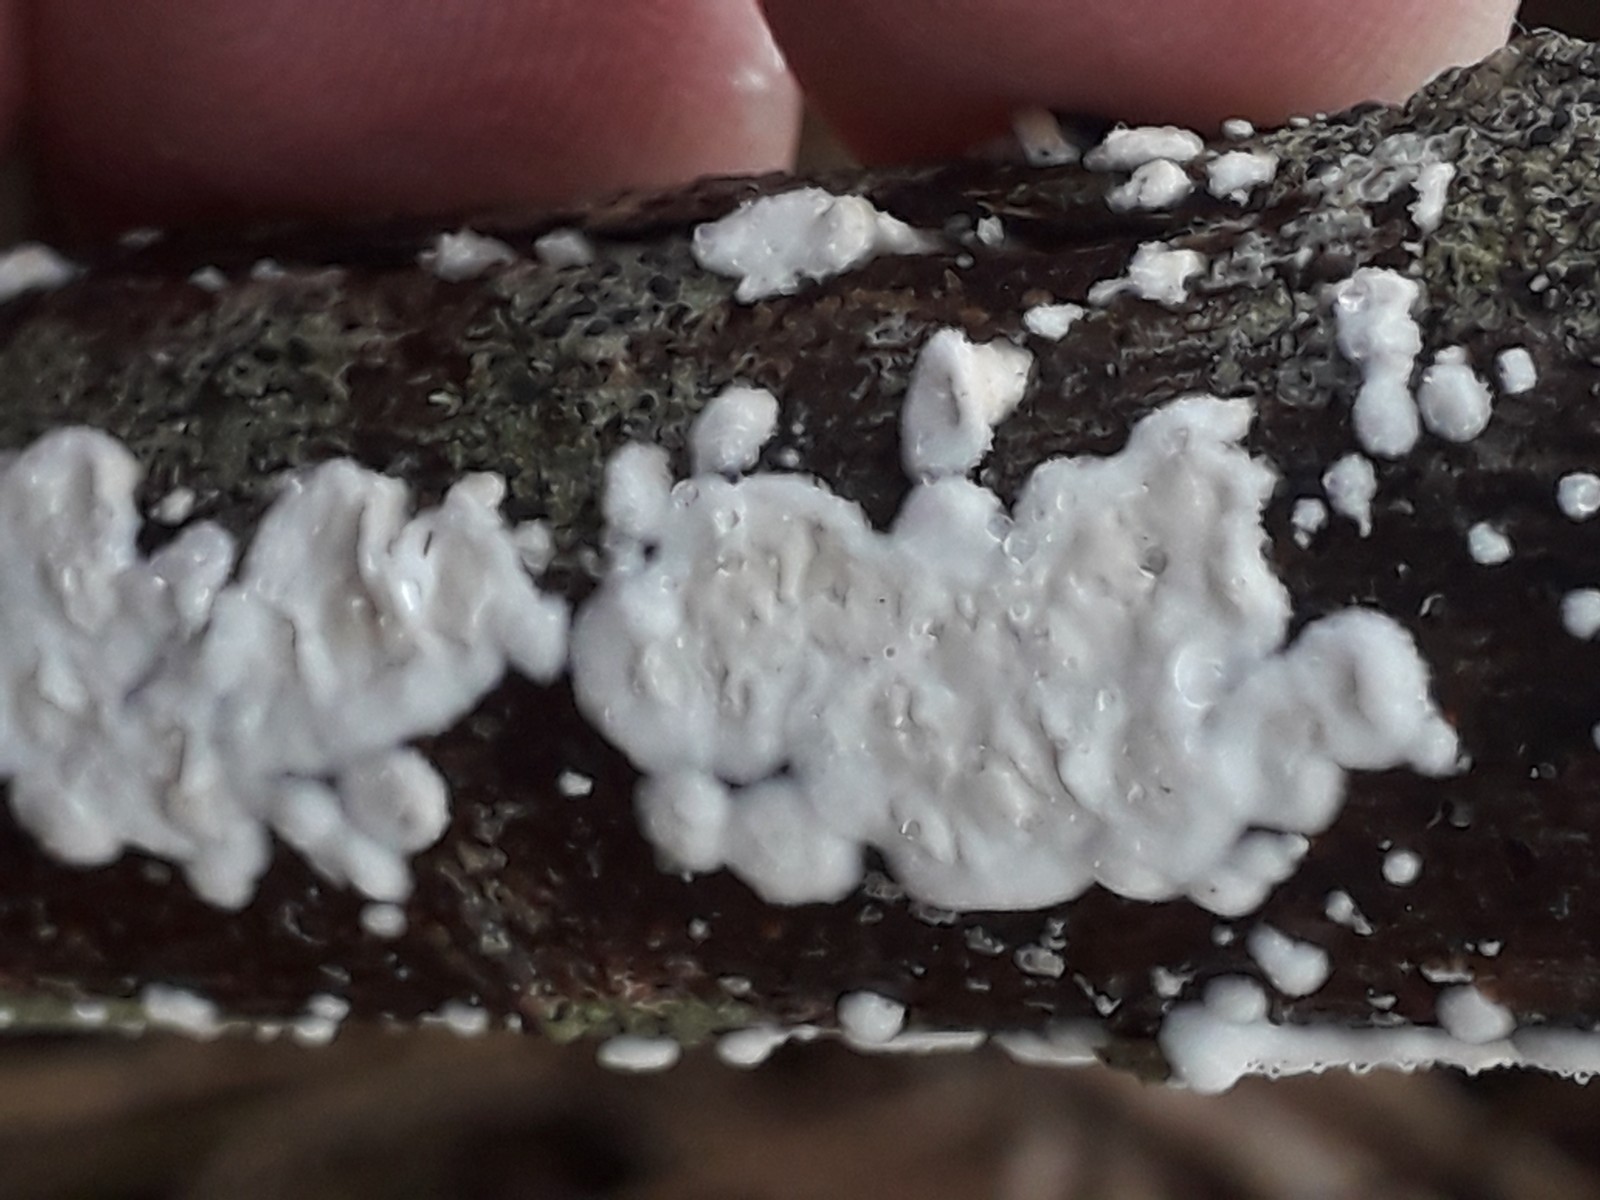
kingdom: Fungi
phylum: Basidiomycota
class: Agaricomycetes
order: Corticiales
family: Corticiaceae
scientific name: Corticiaceae
